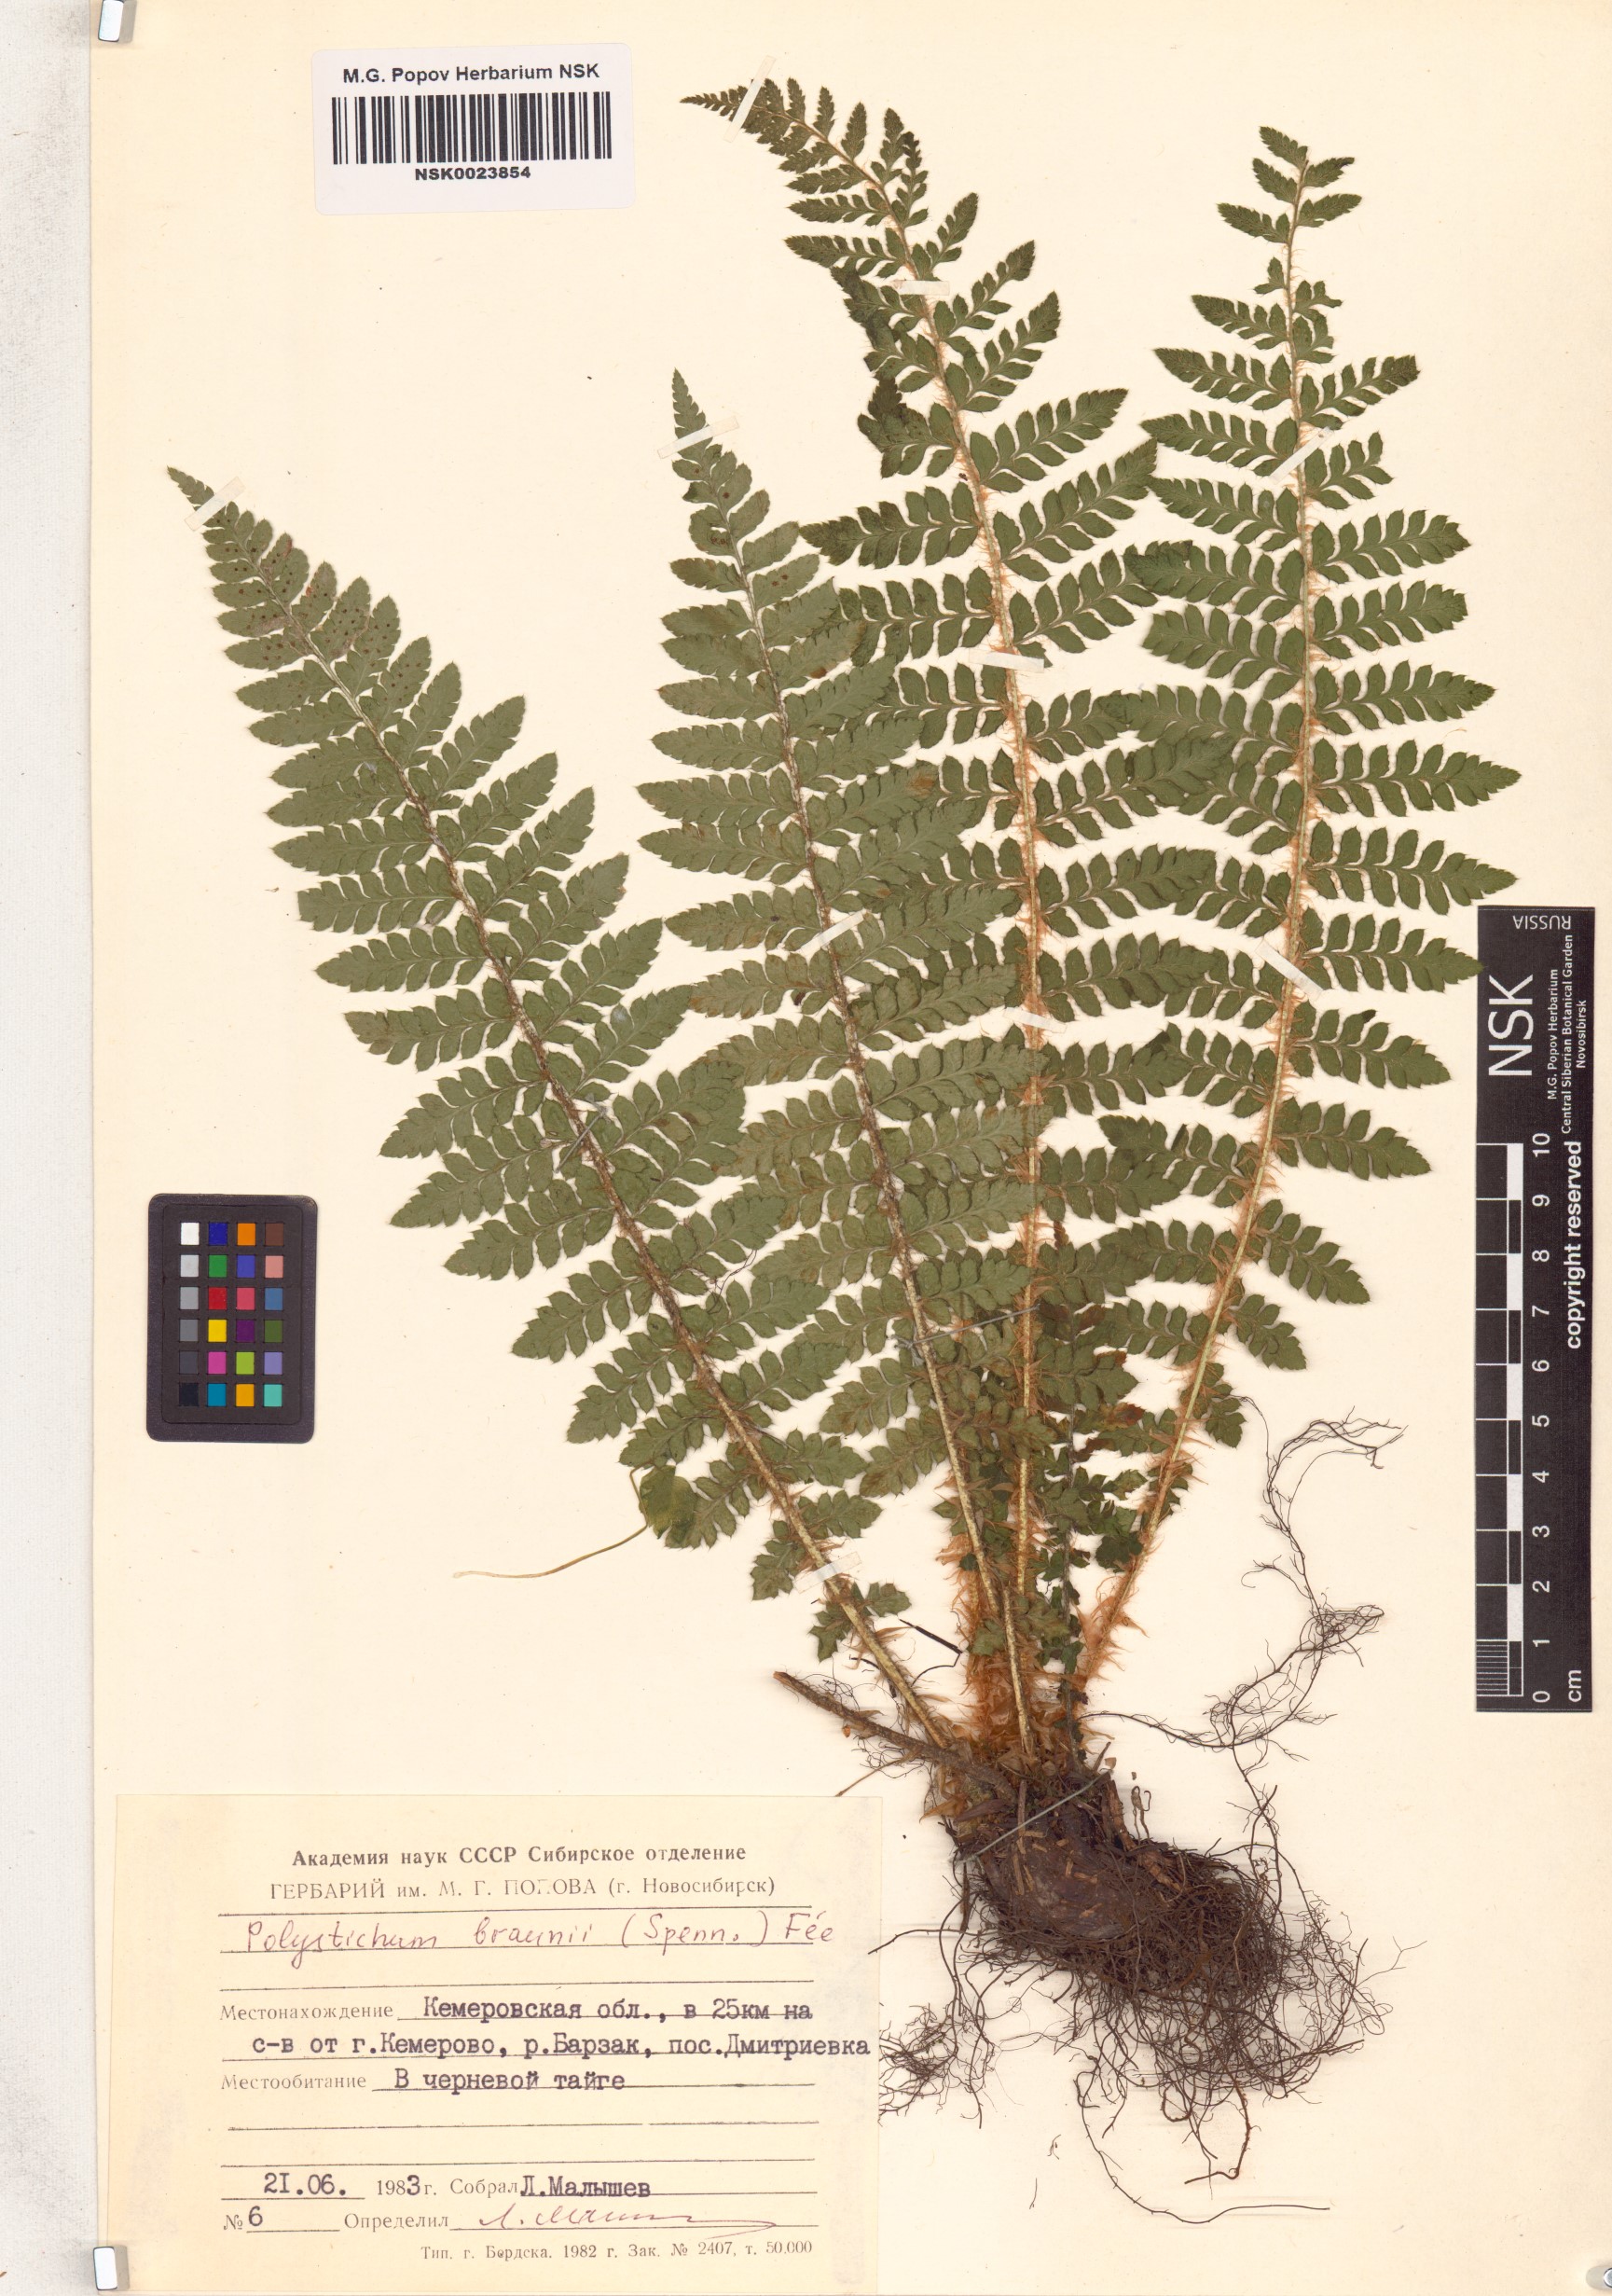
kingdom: Plantae
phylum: Tracheophyta
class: Polypodiopsida
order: Polypodiales
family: Dryopteridaceae
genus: Polystichum
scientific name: Polystichum braunii
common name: Braun's holly fern
